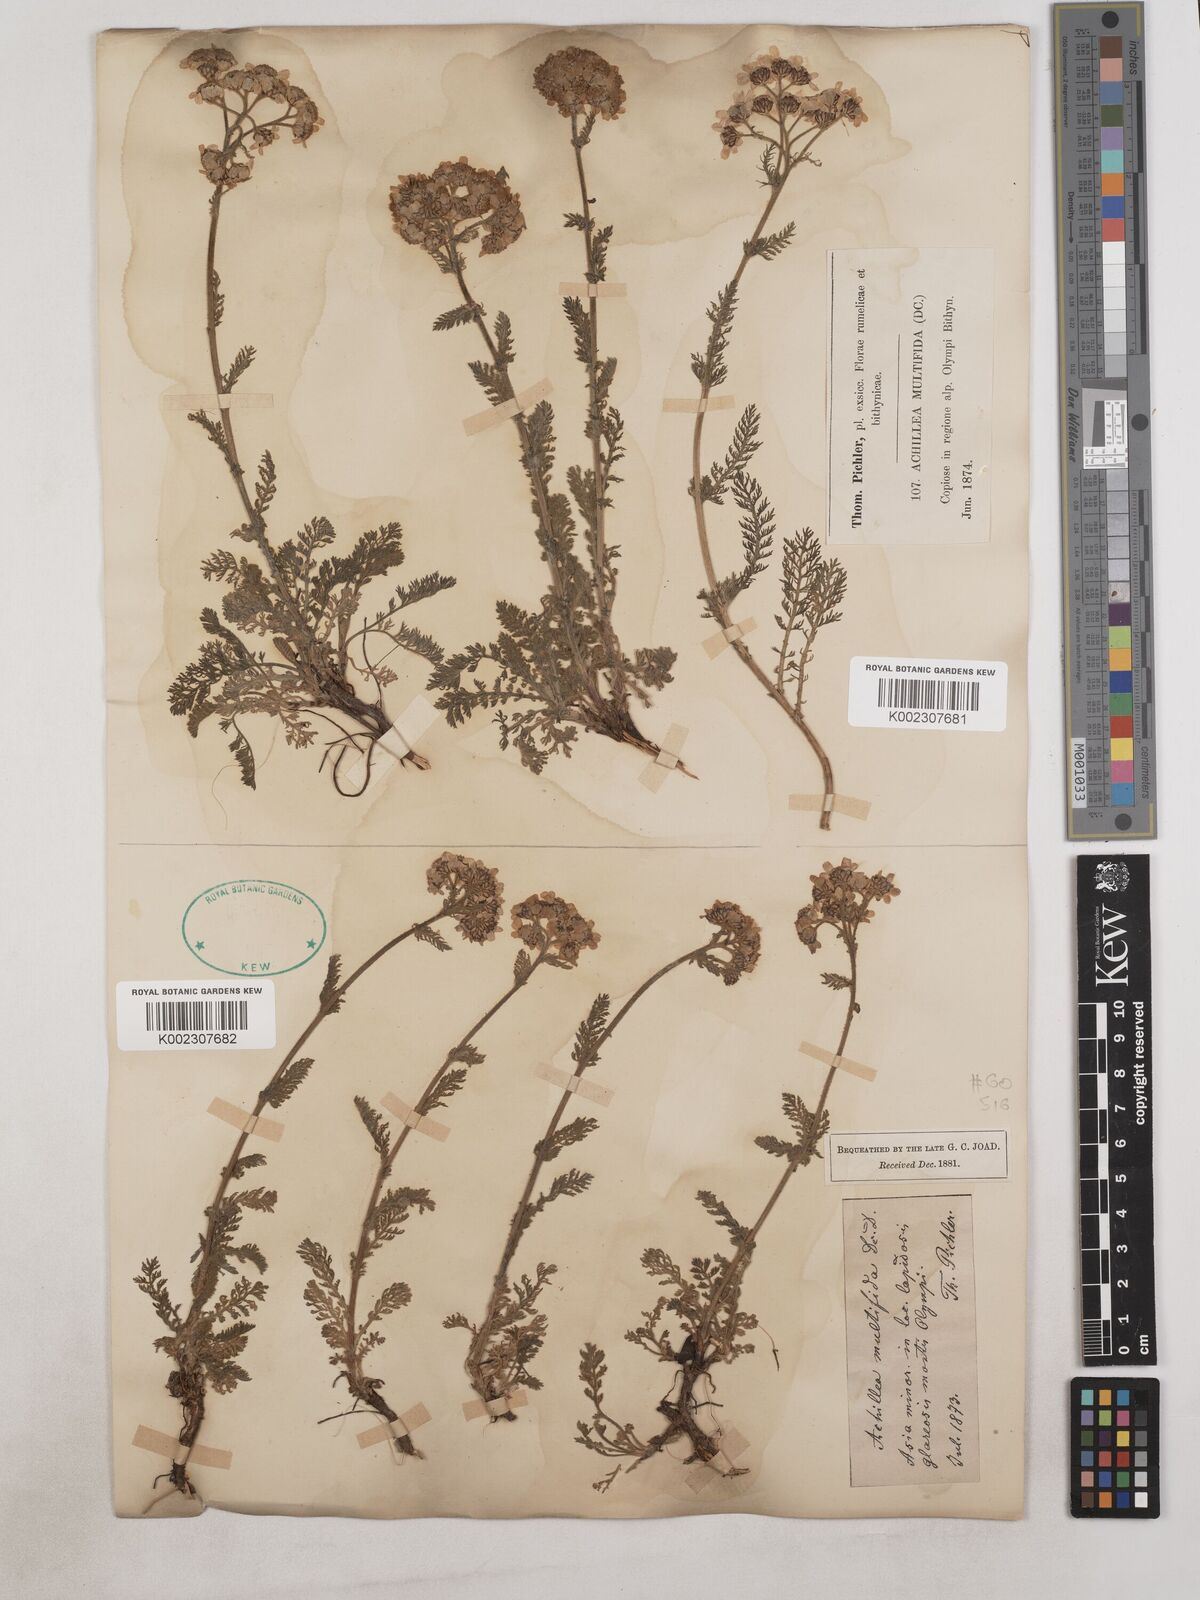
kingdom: Plantae
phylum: Tracheophyta
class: Magnoliopsida
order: Asterales
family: Asteraceae
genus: Achillea
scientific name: Achillea multifida
